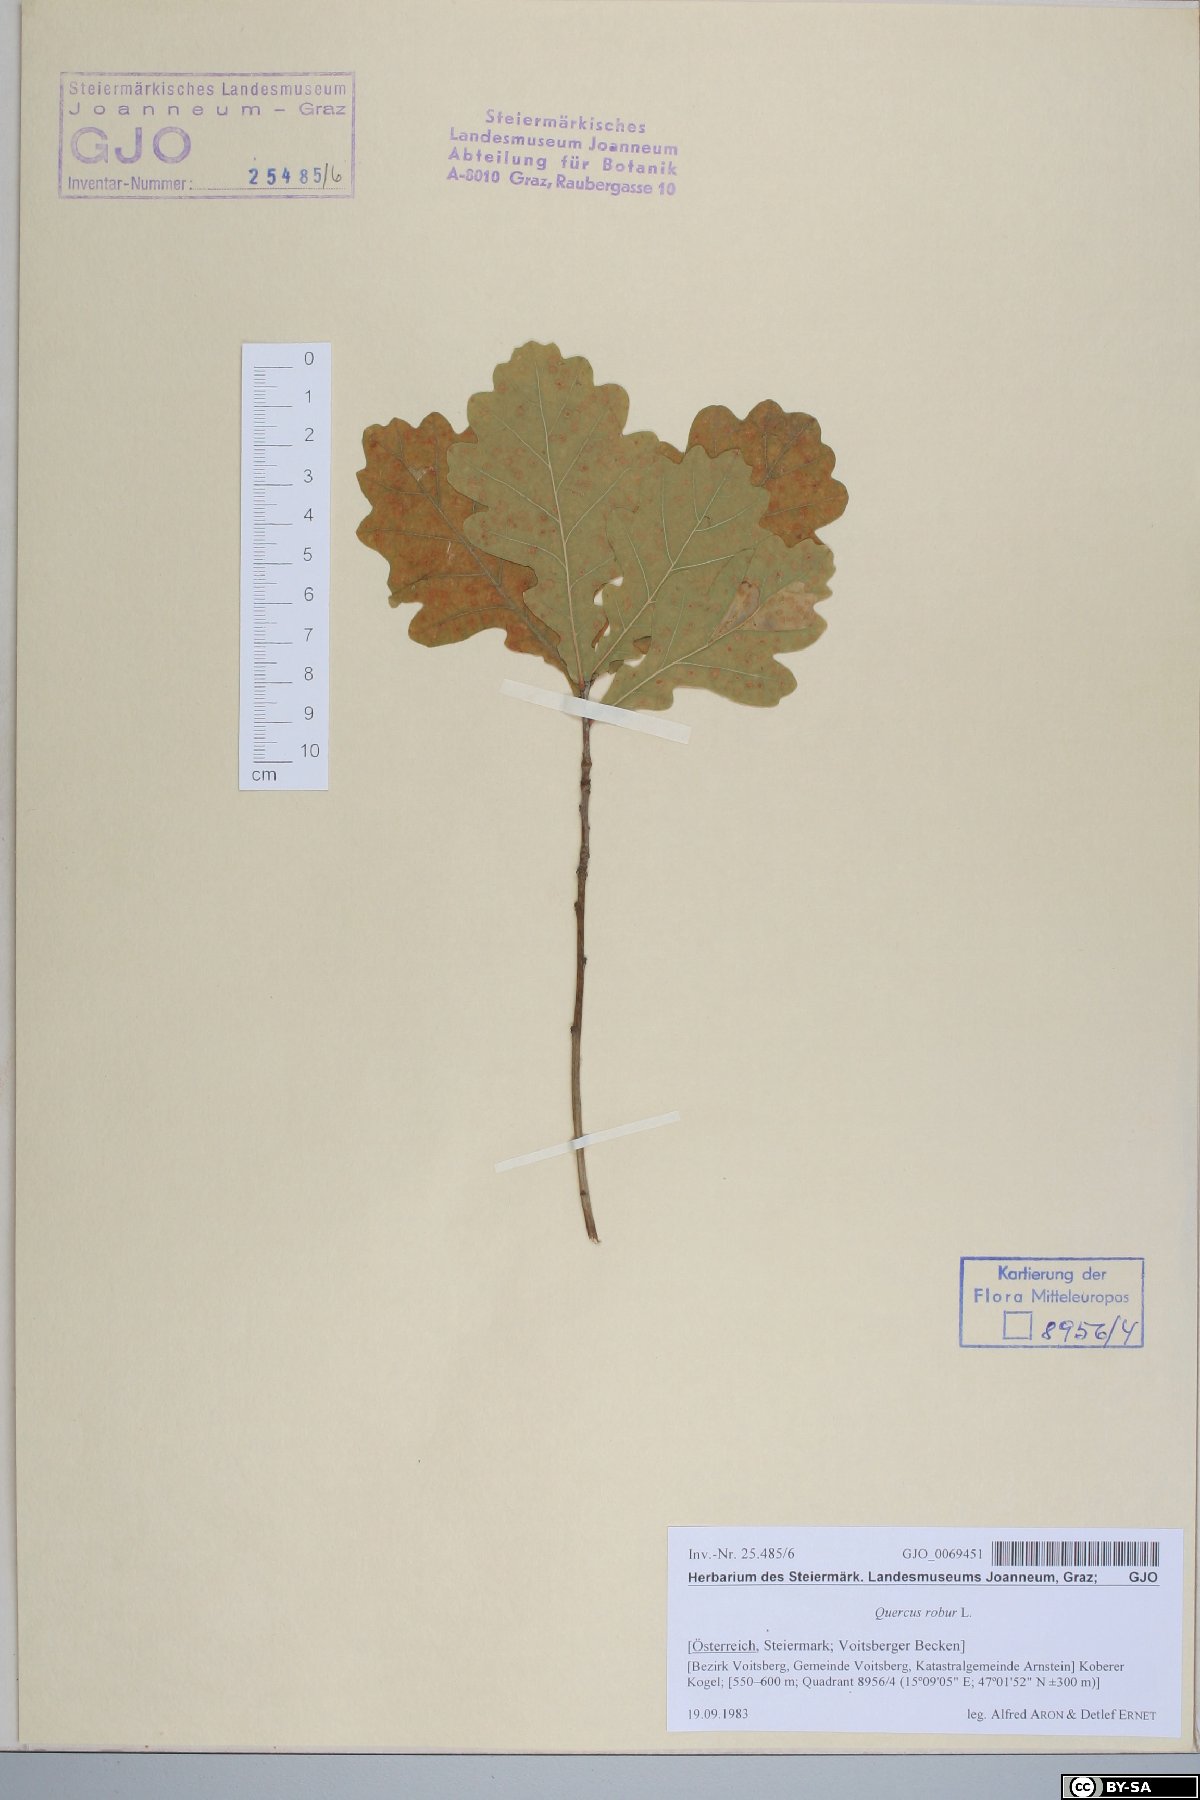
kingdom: Plantae
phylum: Tracheophyta
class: Magnoliopsida
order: Fagales
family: Fagaceae
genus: Quercus
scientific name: Quercus robur
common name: Pedunculate oak
